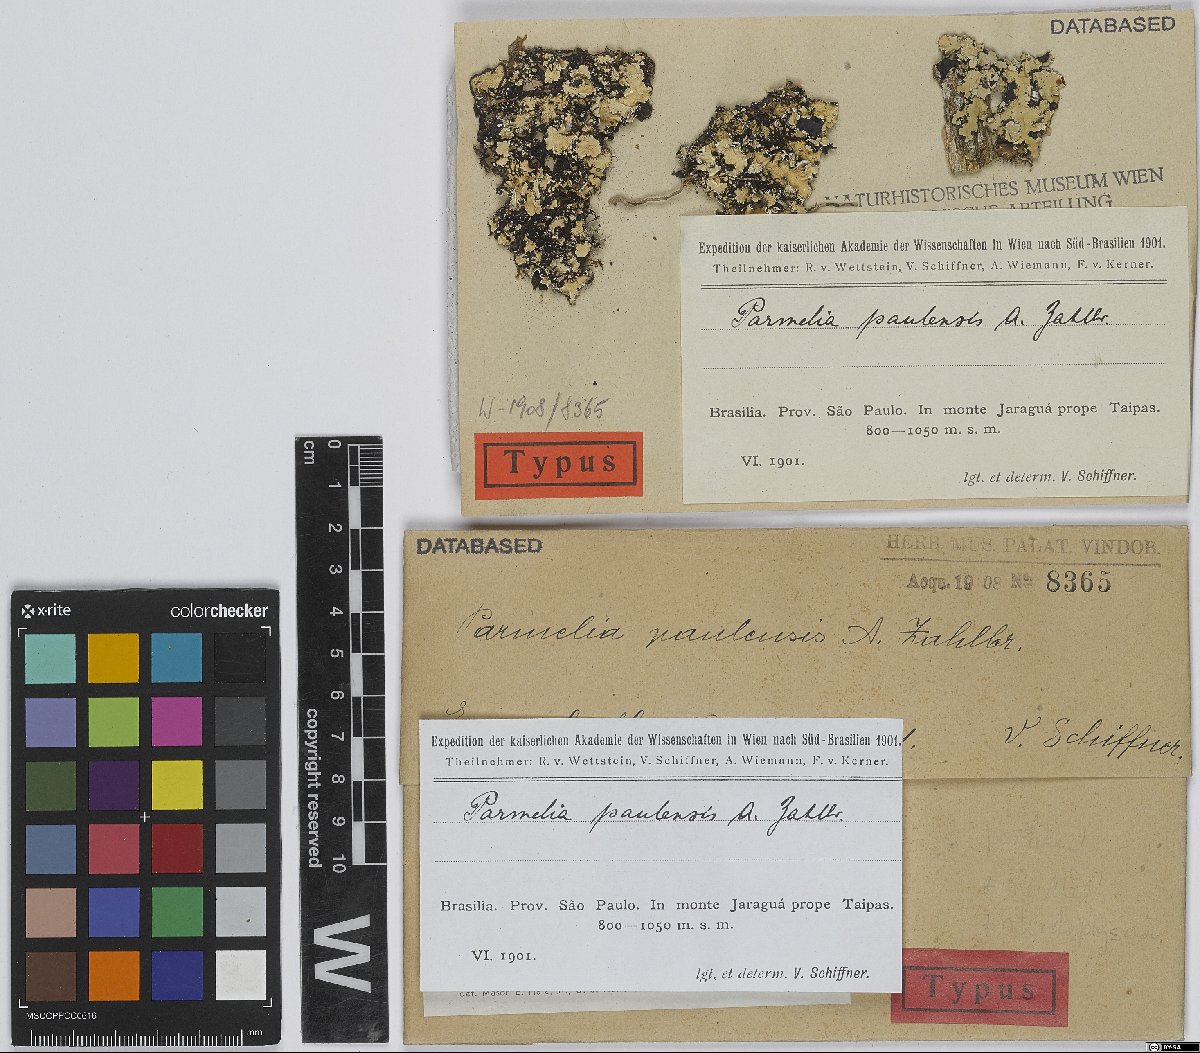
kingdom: Fungi
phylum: Ascomycota
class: Lecanoromycetes
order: Lecanorales
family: Parmeliaceae
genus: Parmotrema
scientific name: Parmotrema paulense
